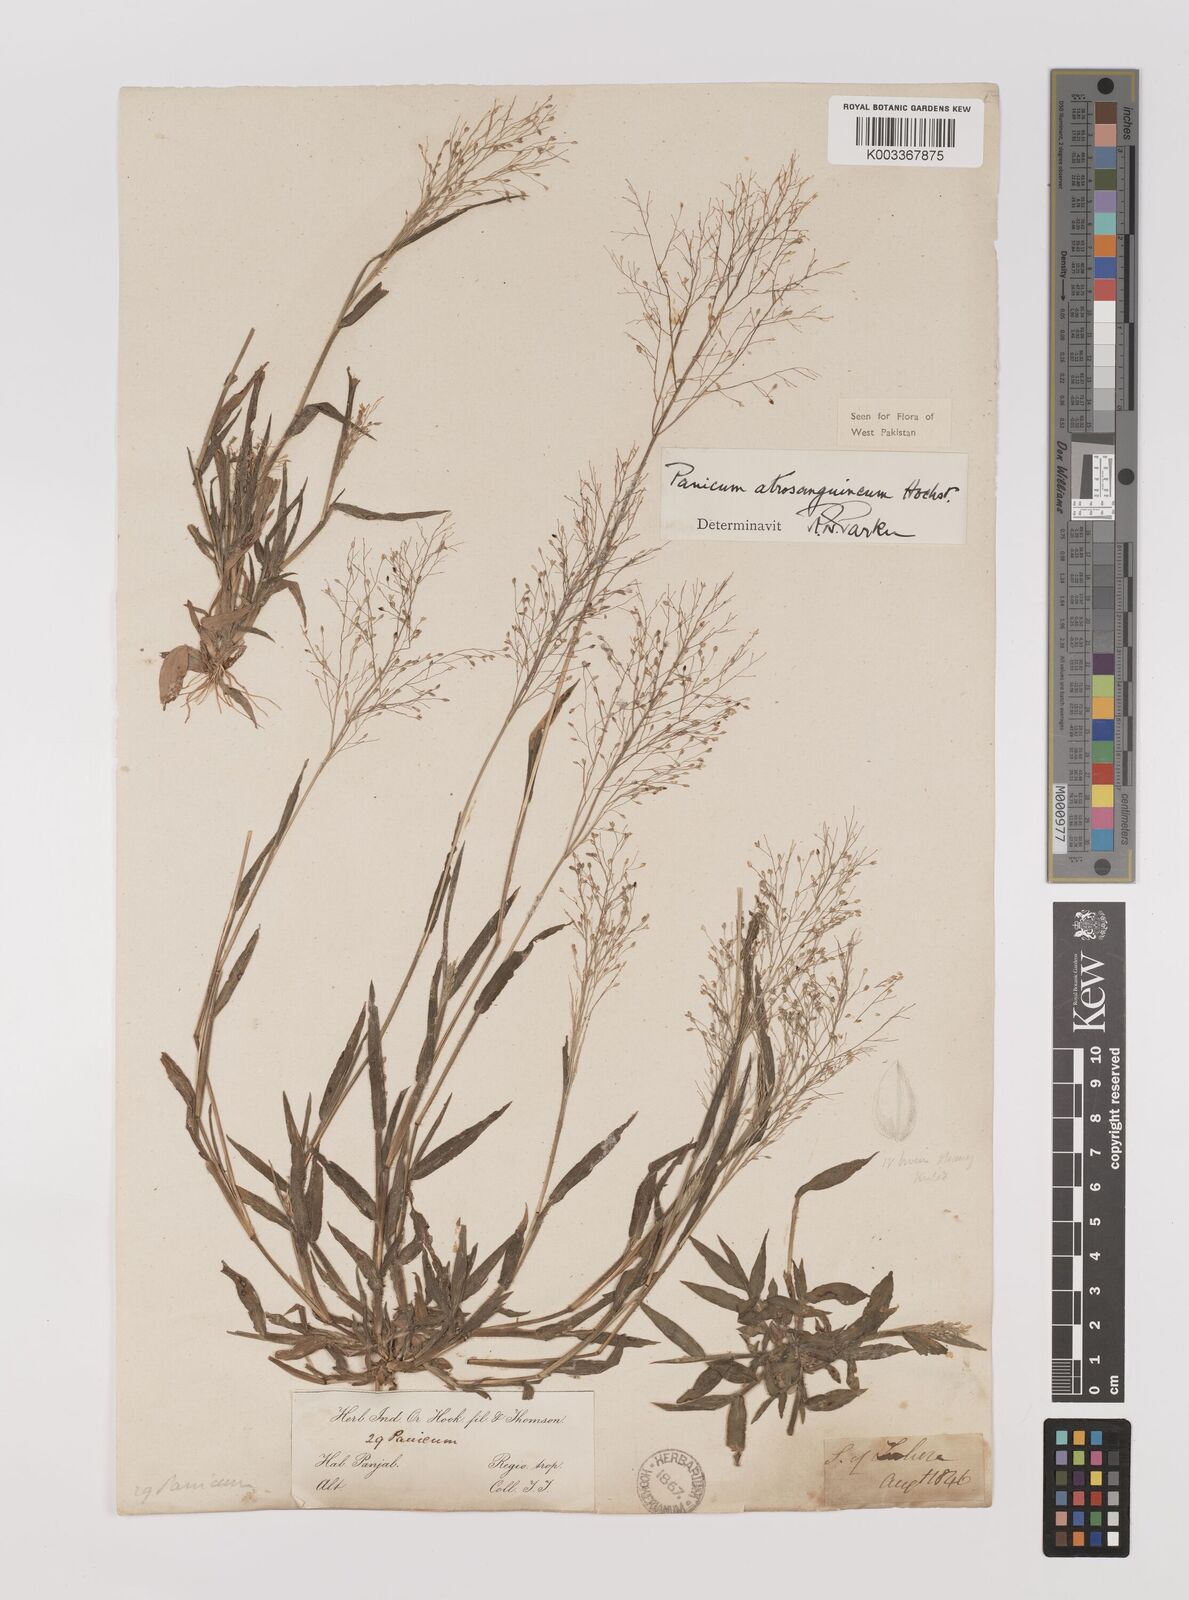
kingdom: Plantae
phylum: Tracheophyta
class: Liliopsida
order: Poales
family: Poaceae
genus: Panicum
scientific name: Panicum atrosanguineum
